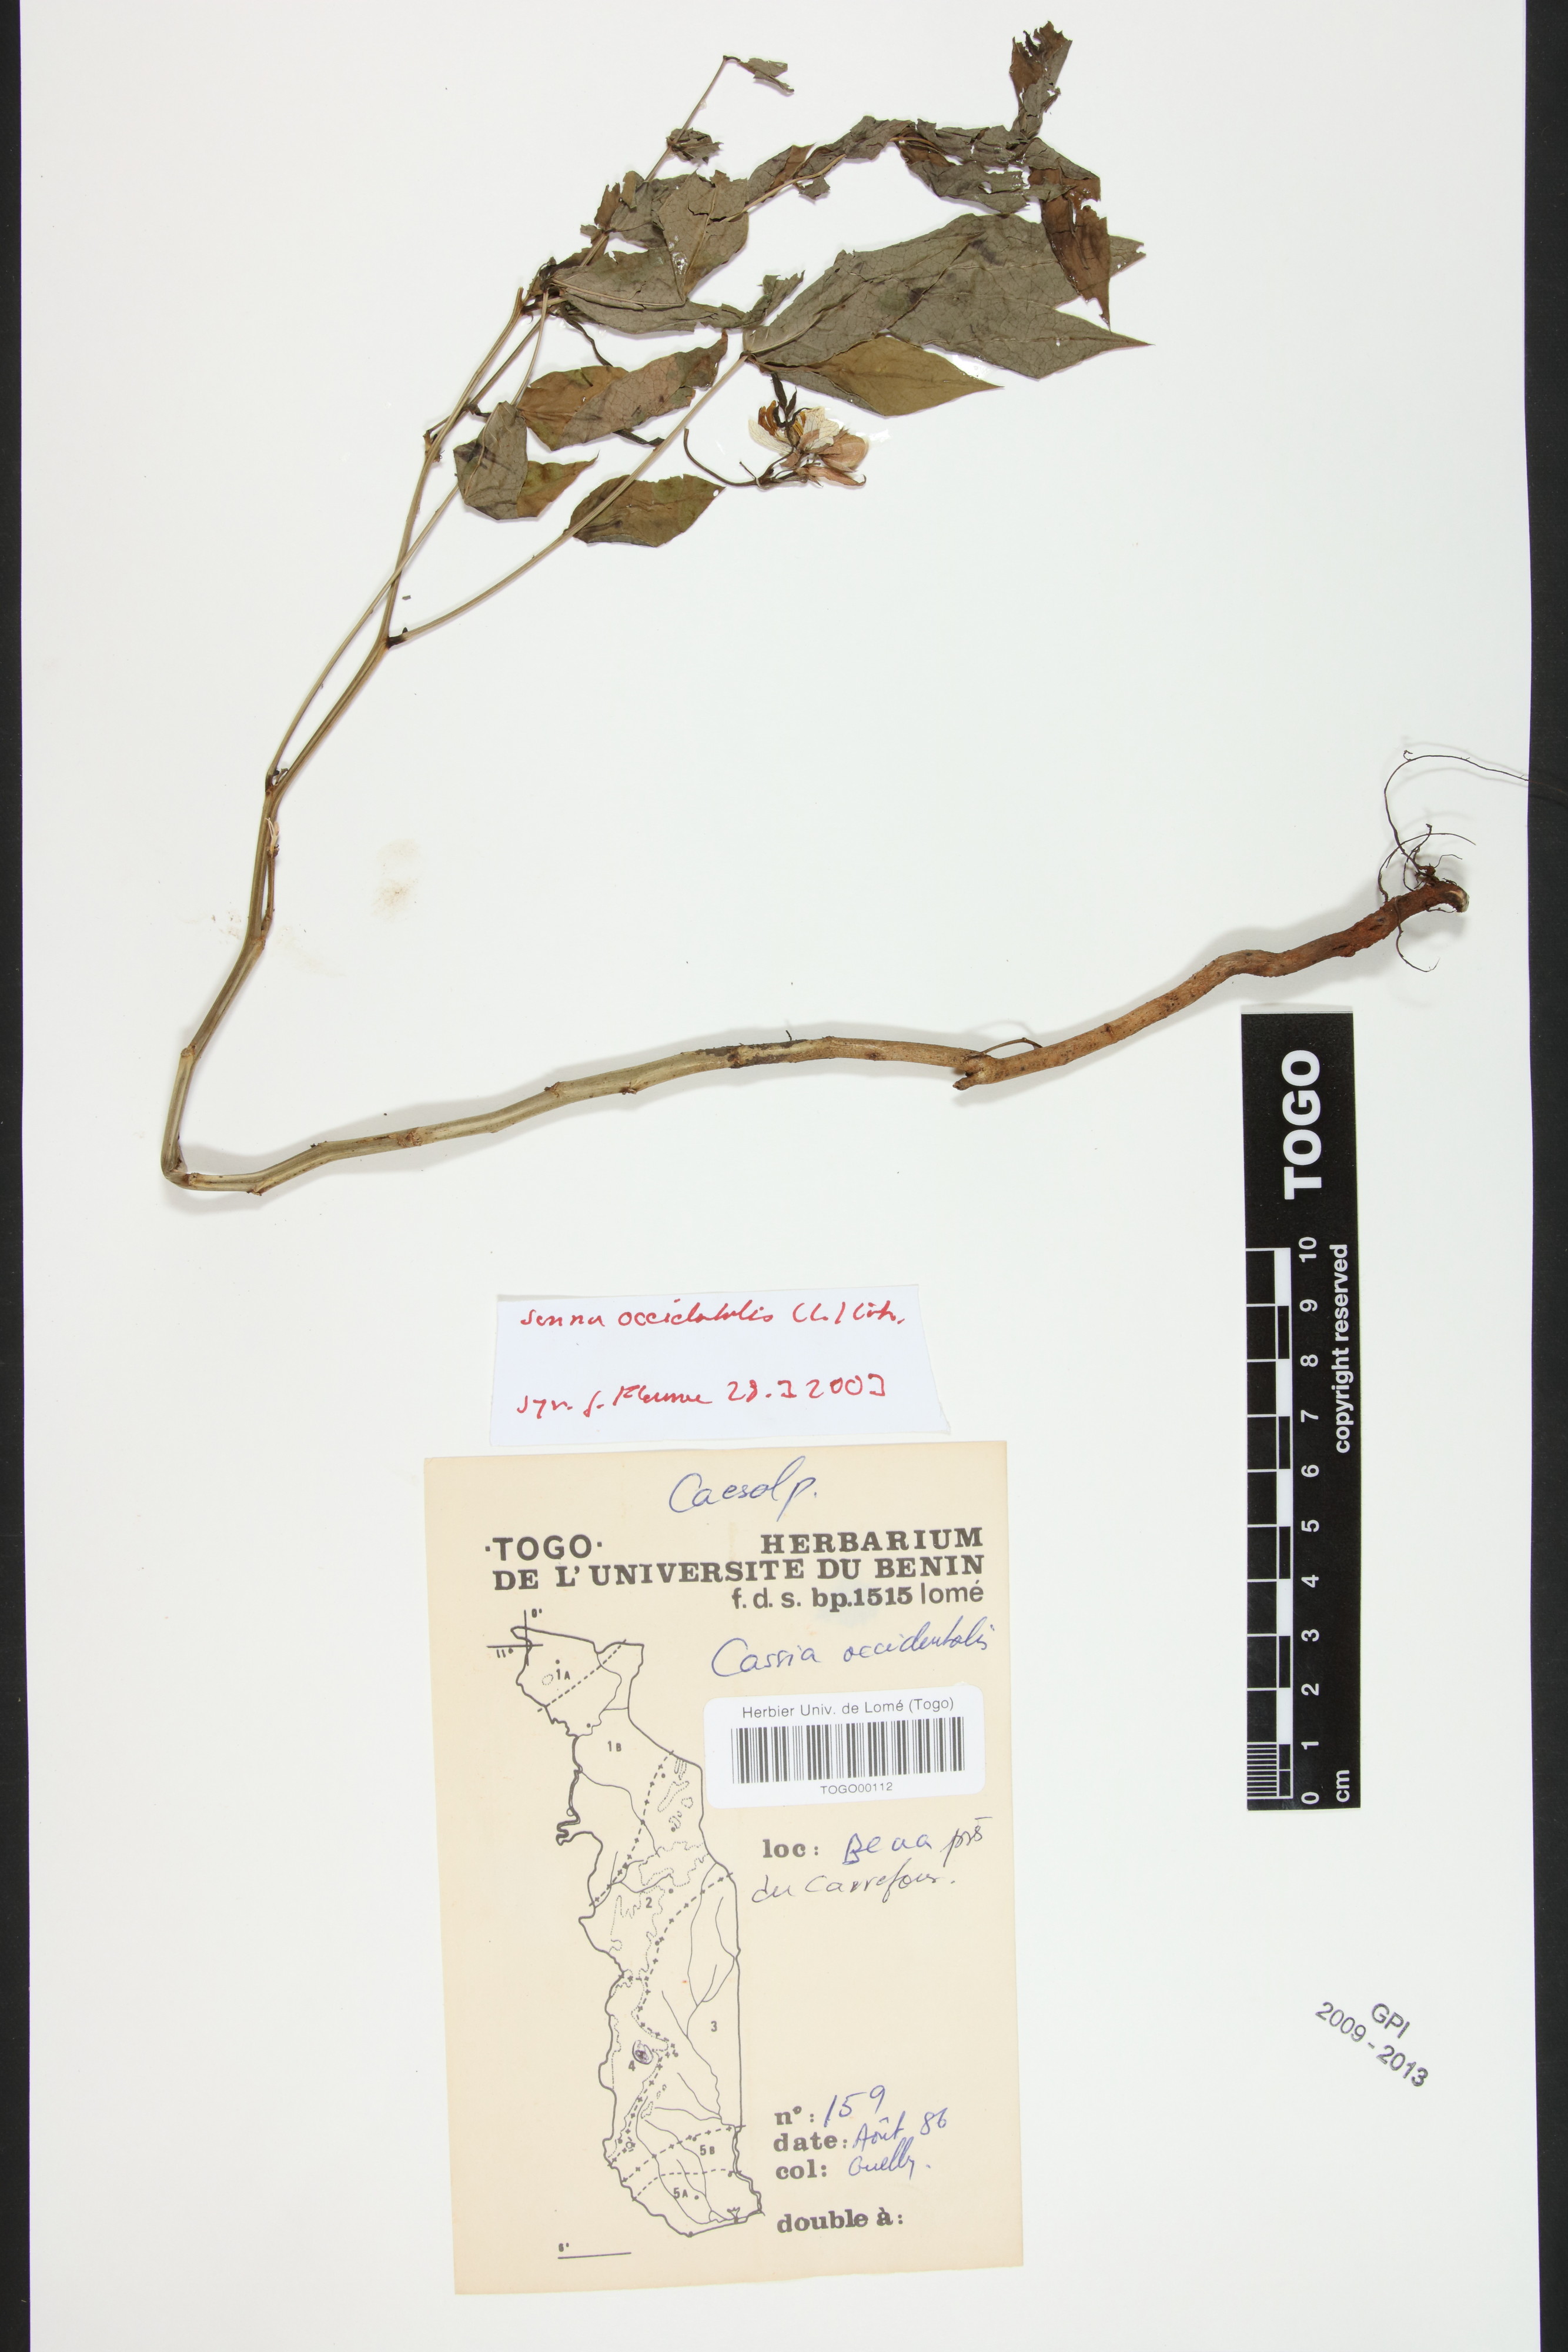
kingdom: Plantae
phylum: Tracheophyta
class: Magnoliopsida
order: Fabales
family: Fabaceae
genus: Senna
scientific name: Senna occidentalis
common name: Septicweed
